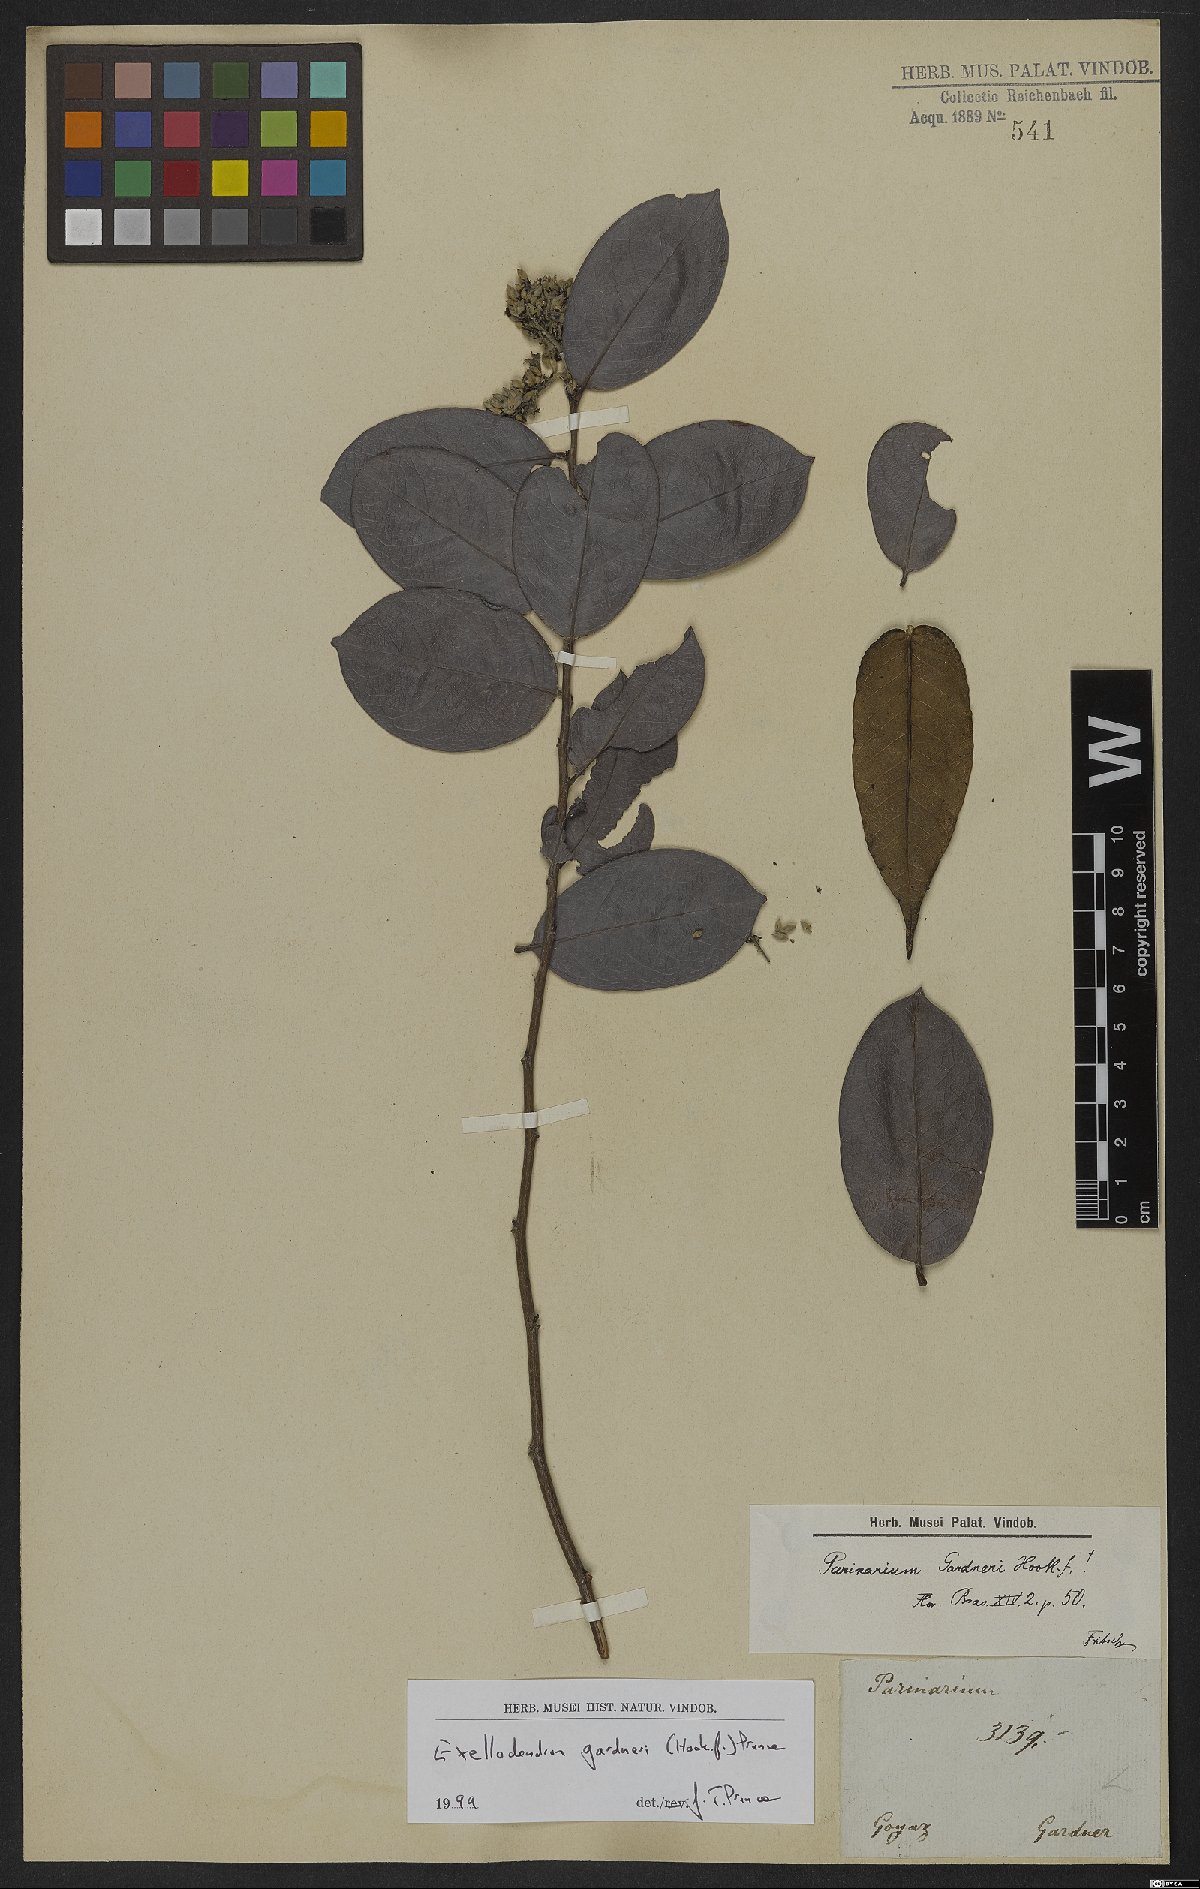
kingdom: Plantae
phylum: Tracheophyta
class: Magnoliopsida
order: Malpighiales
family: Chrysobalanaceae
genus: Exellodendron
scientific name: Exellodendron gardneri
